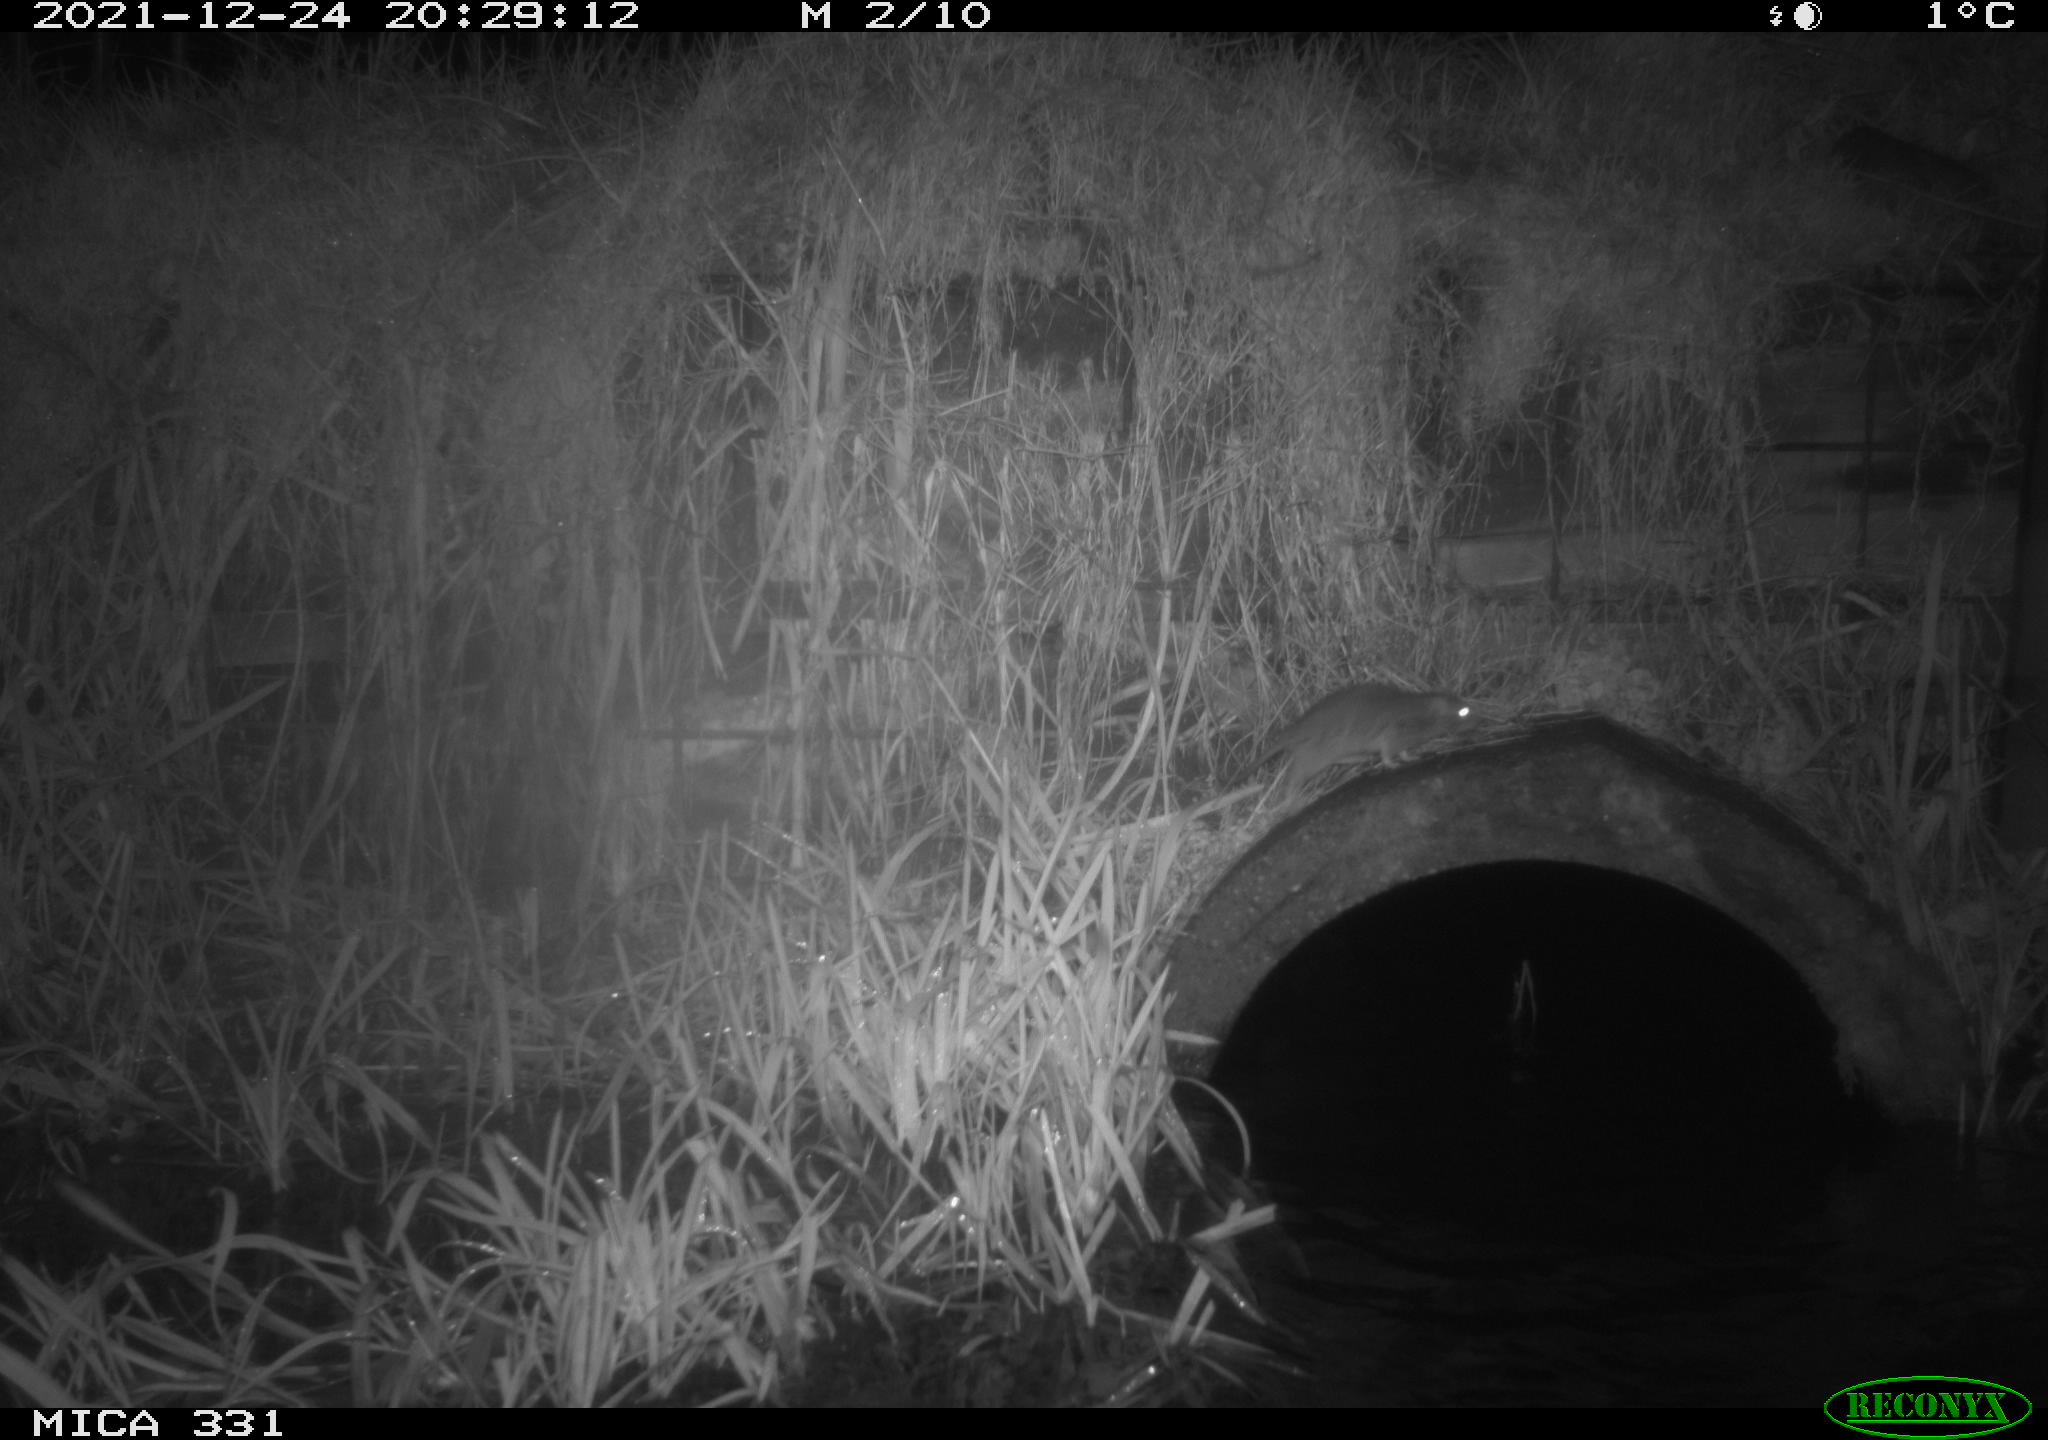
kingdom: Animalia
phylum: Chordata
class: Mammalia
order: Rodentia
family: Muridae
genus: Rattus
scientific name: Rattus norvegicus
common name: Brown rat
